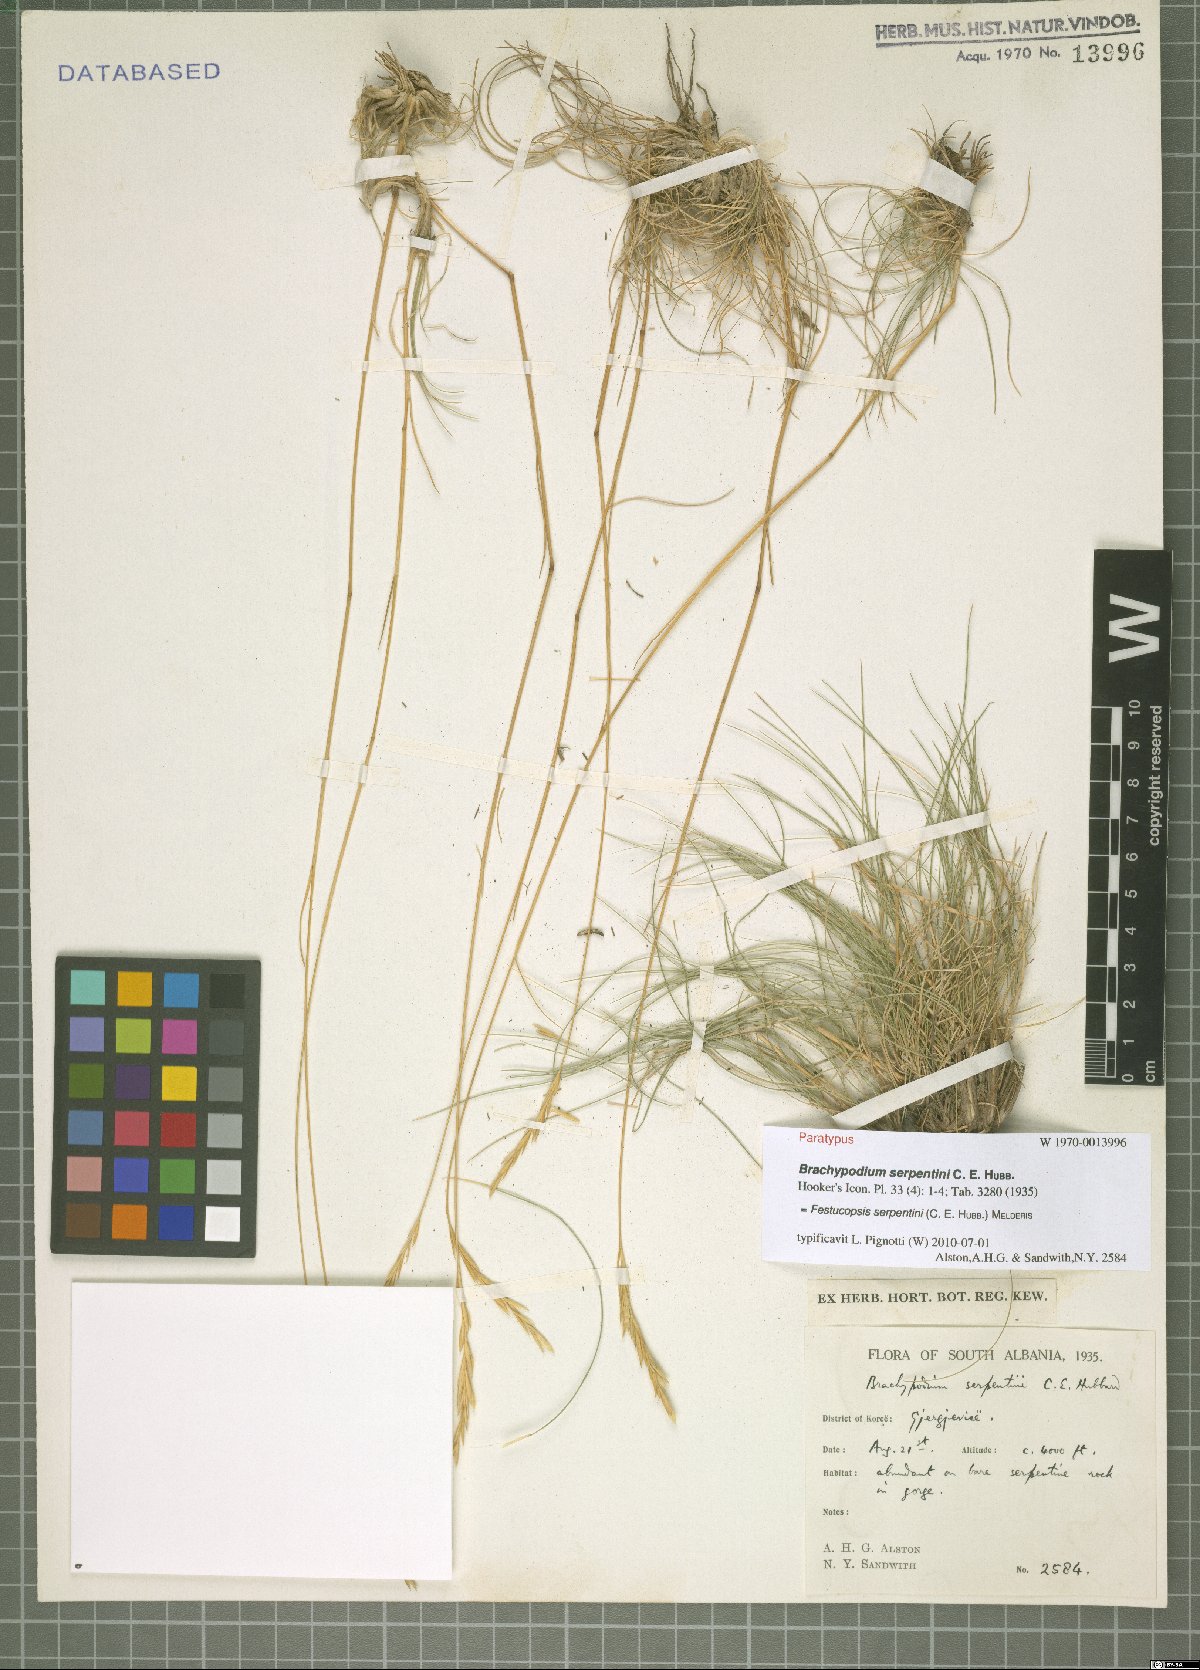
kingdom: Plantae
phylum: Tracheophyta
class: Liliopsida
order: Poales
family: Poaceae
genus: Festucopsis
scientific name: Festucopsis serpentini
